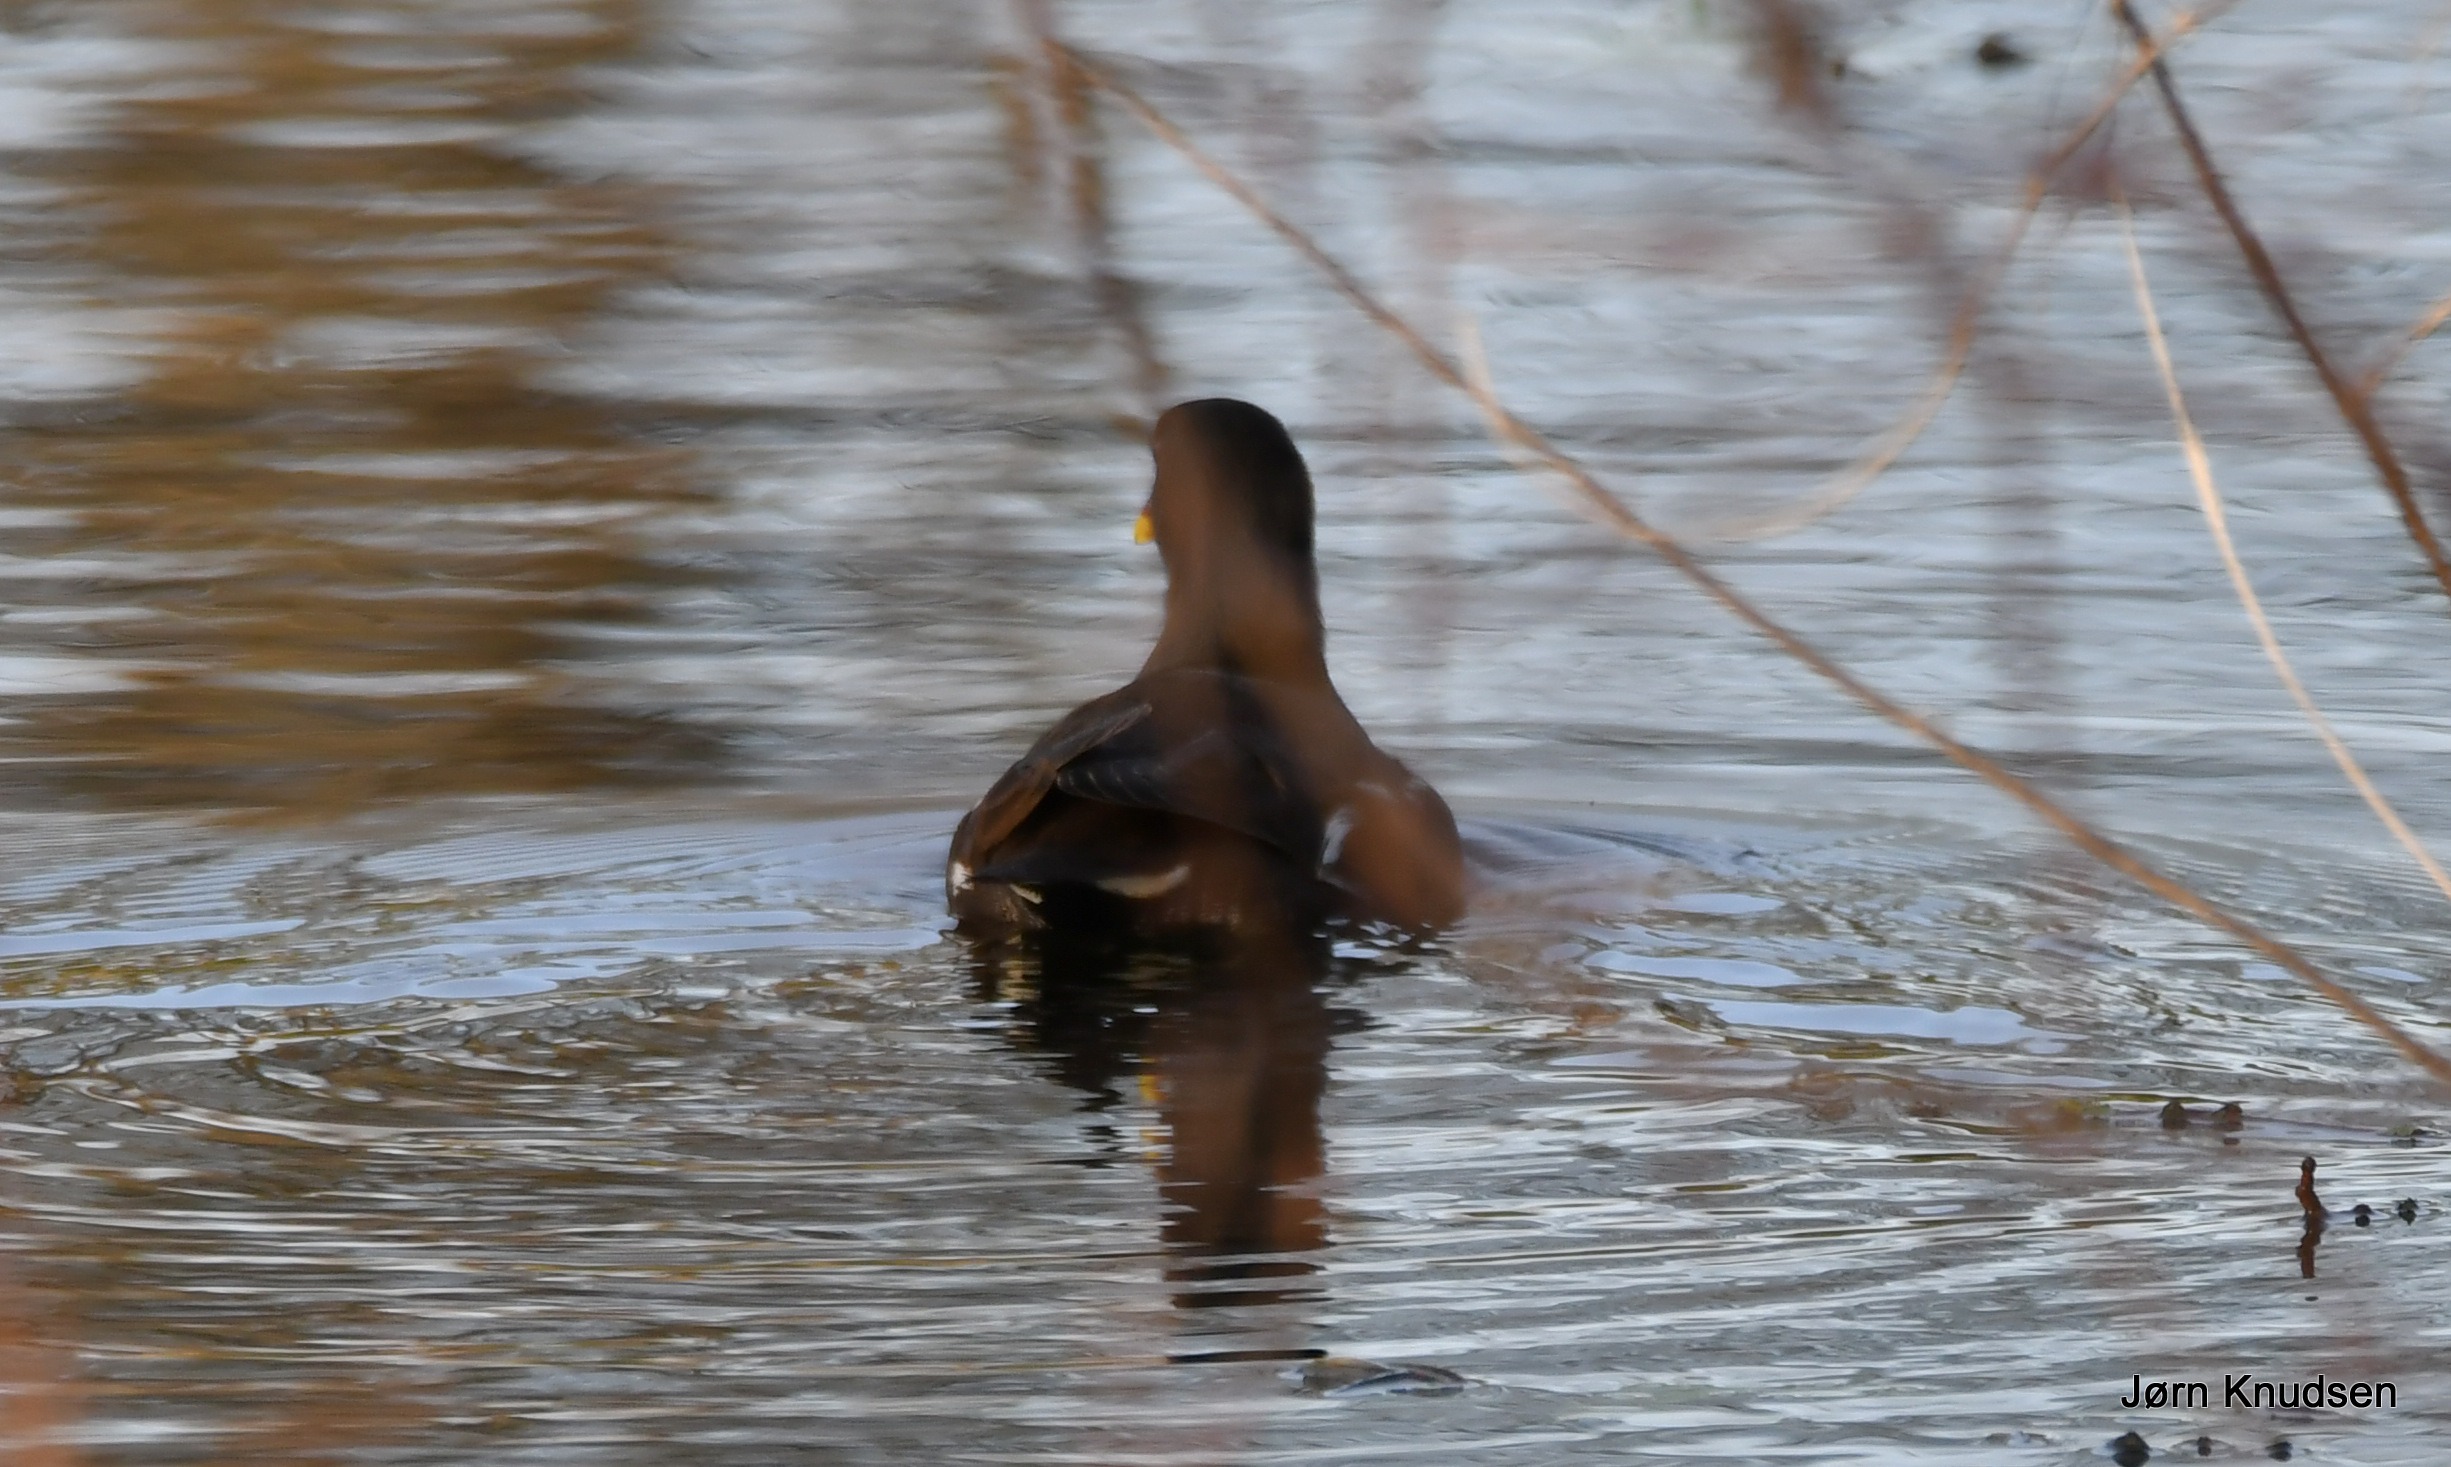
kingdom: Animalia
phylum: Chordata
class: Aves
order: Gruiformes
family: Rallidae
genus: Gallinula
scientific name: Gallinula chloropus
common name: Grønbenet rørhøne
